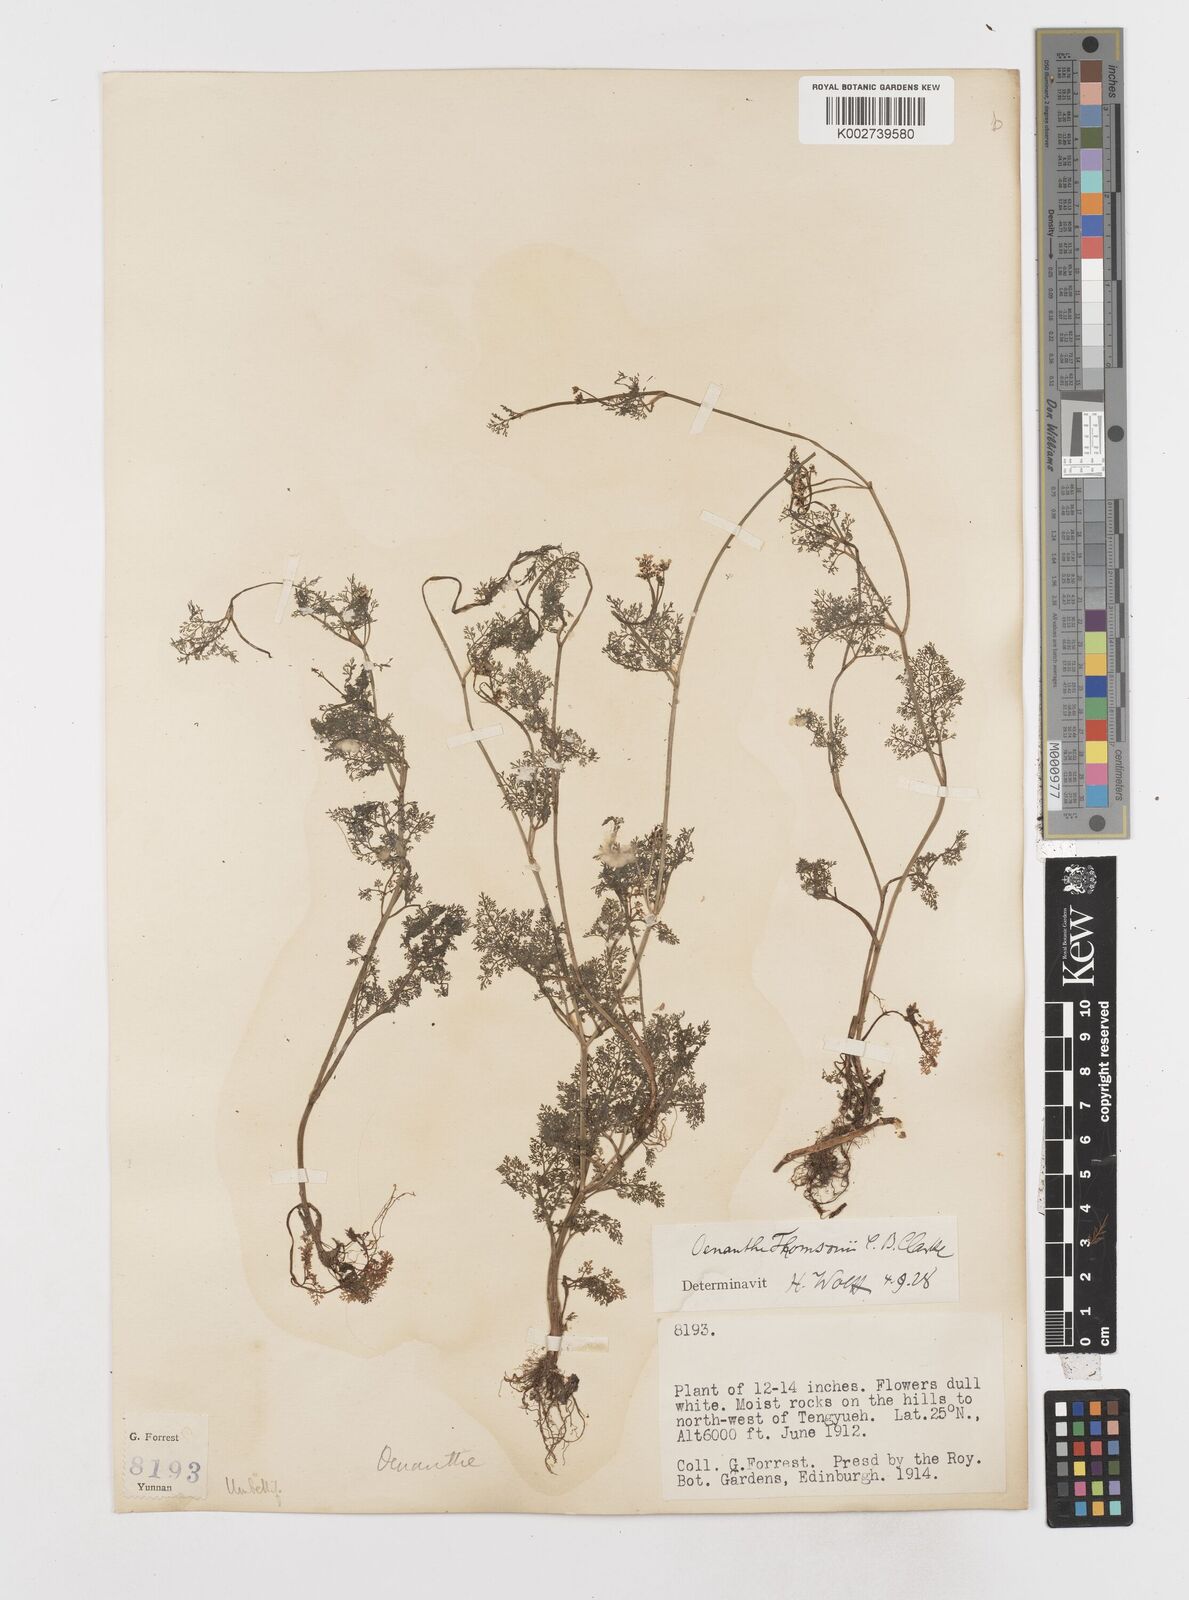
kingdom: Plantae
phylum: Tracheophyta
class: Magnoliopsida
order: Apiales
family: Apiaceae
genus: Oenanthe
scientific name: Oenanthe thomsonii
